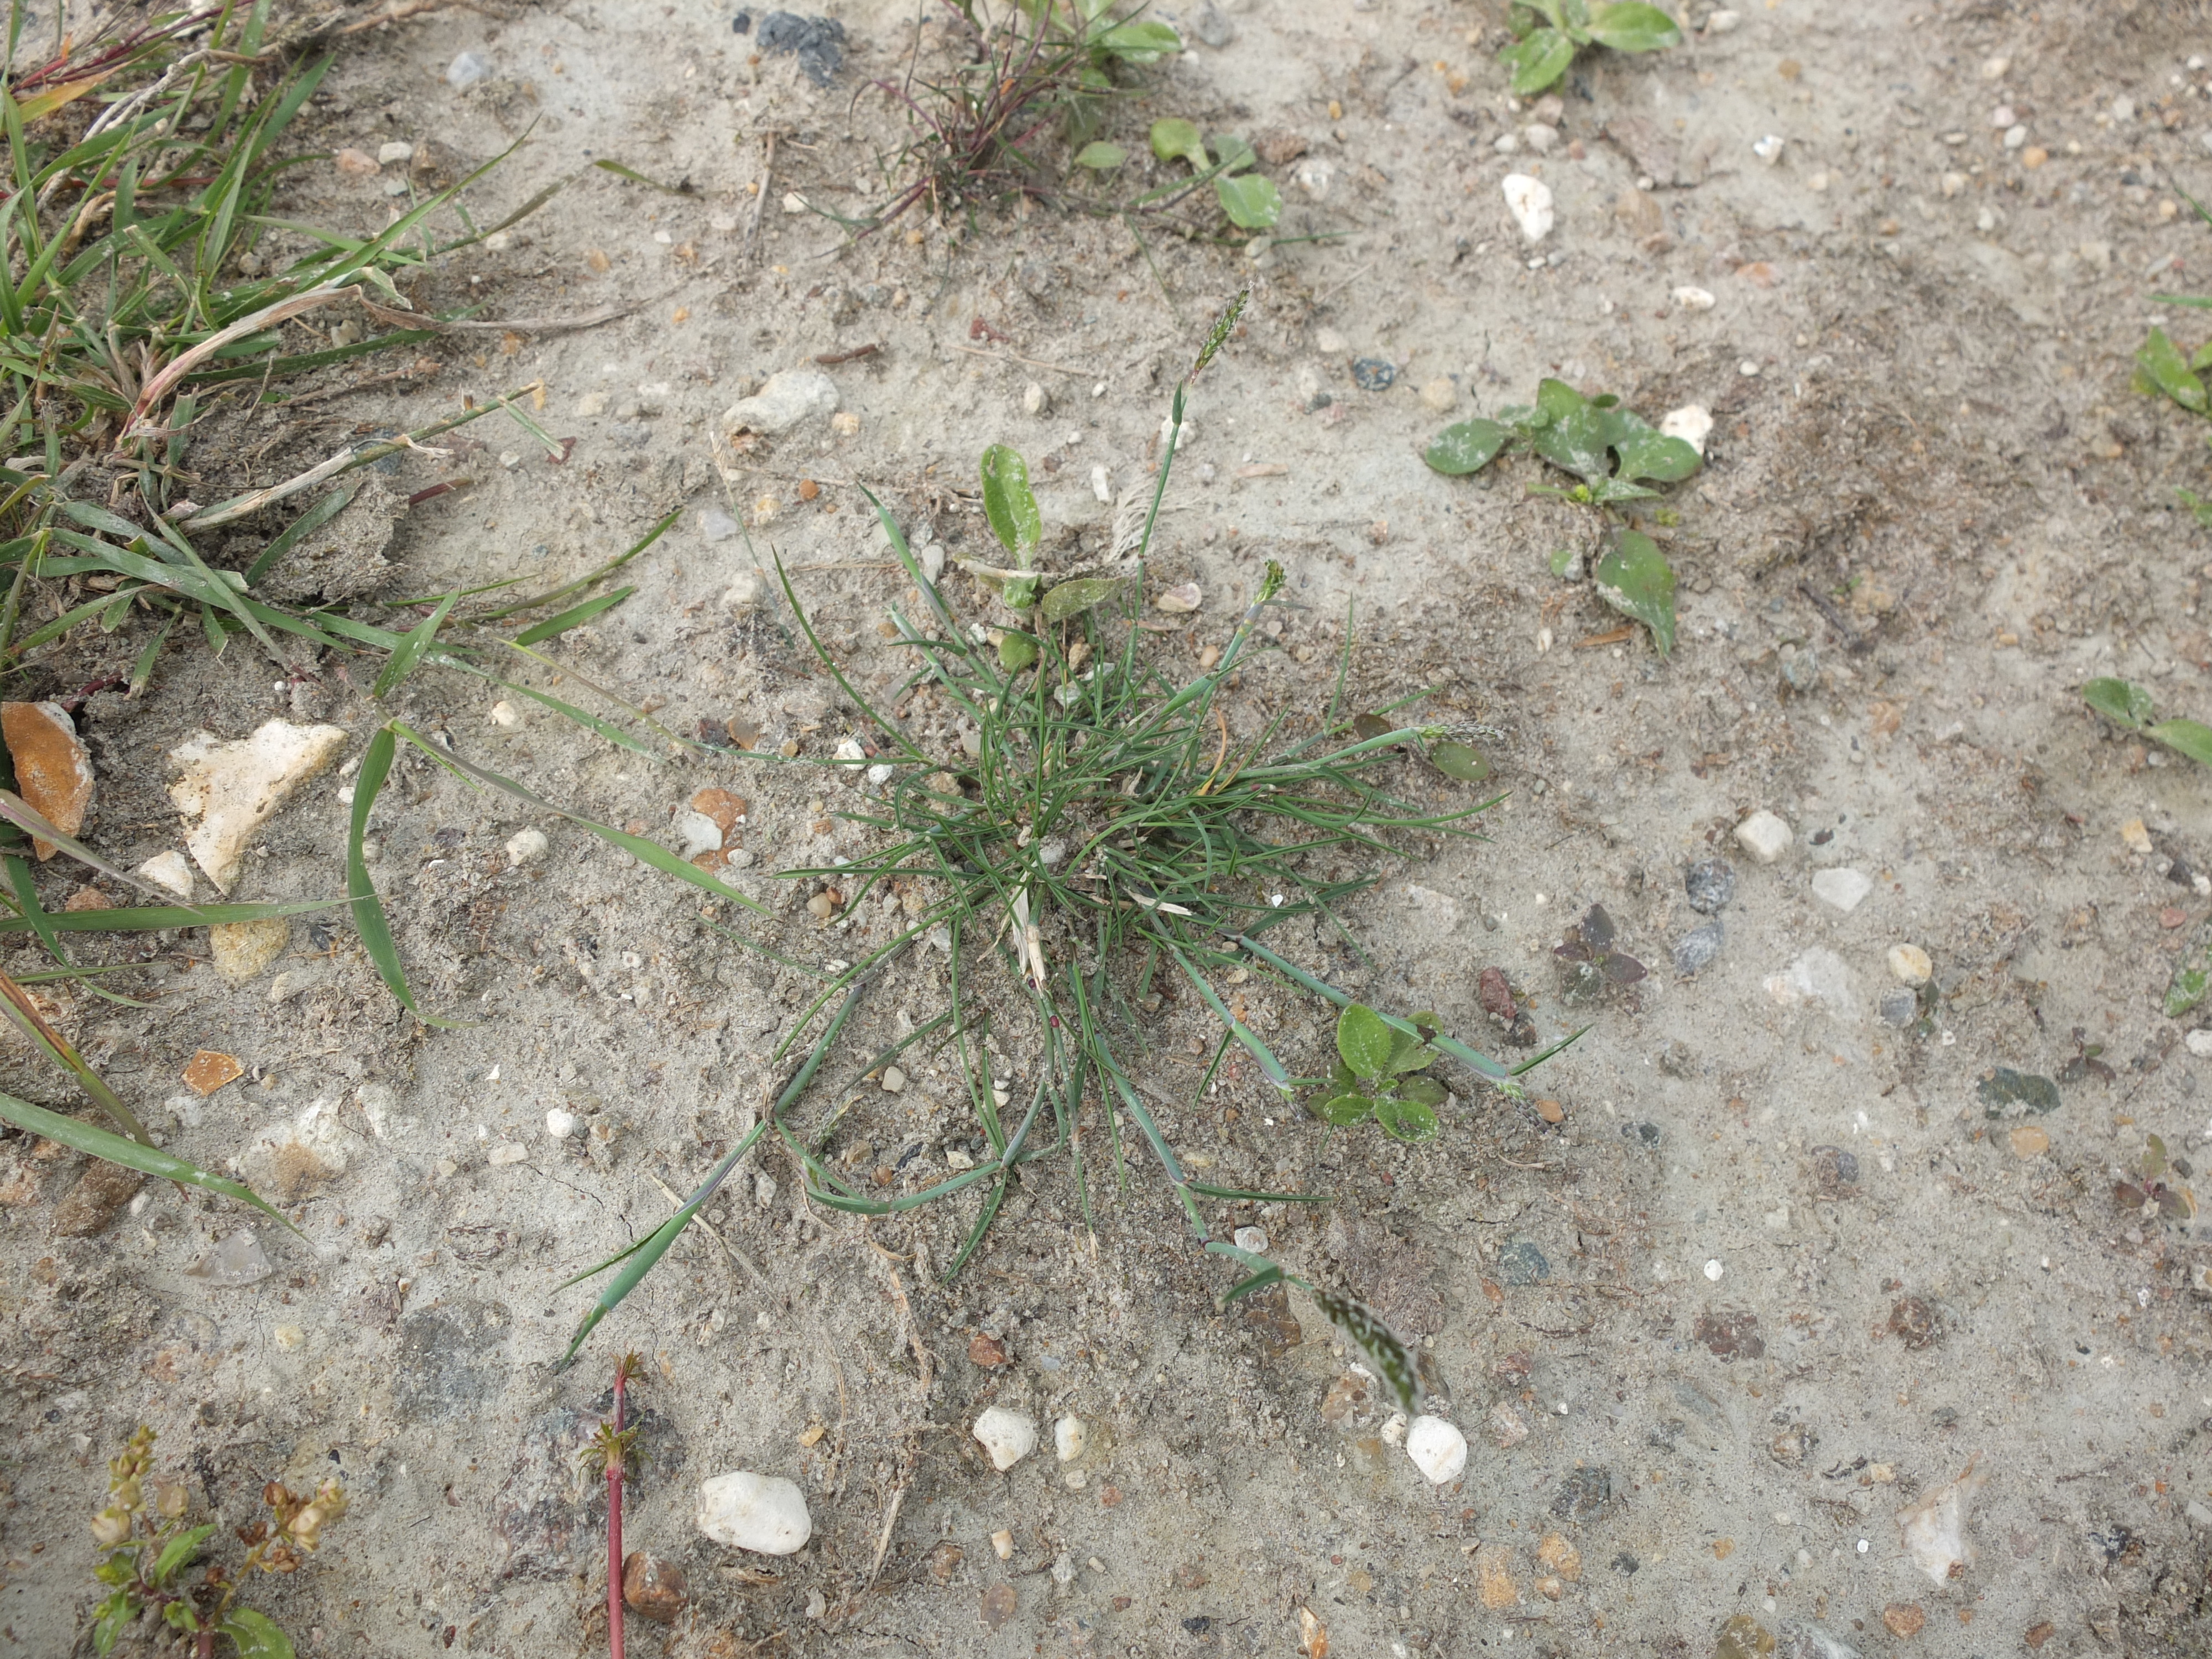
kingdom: Plantae
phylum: Tracheophyta
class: Liliopsida
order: Poales
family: Poaceae
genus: Alopecurus
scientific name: Alopecurus geniculatus
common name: Knæbøjet rævehale
